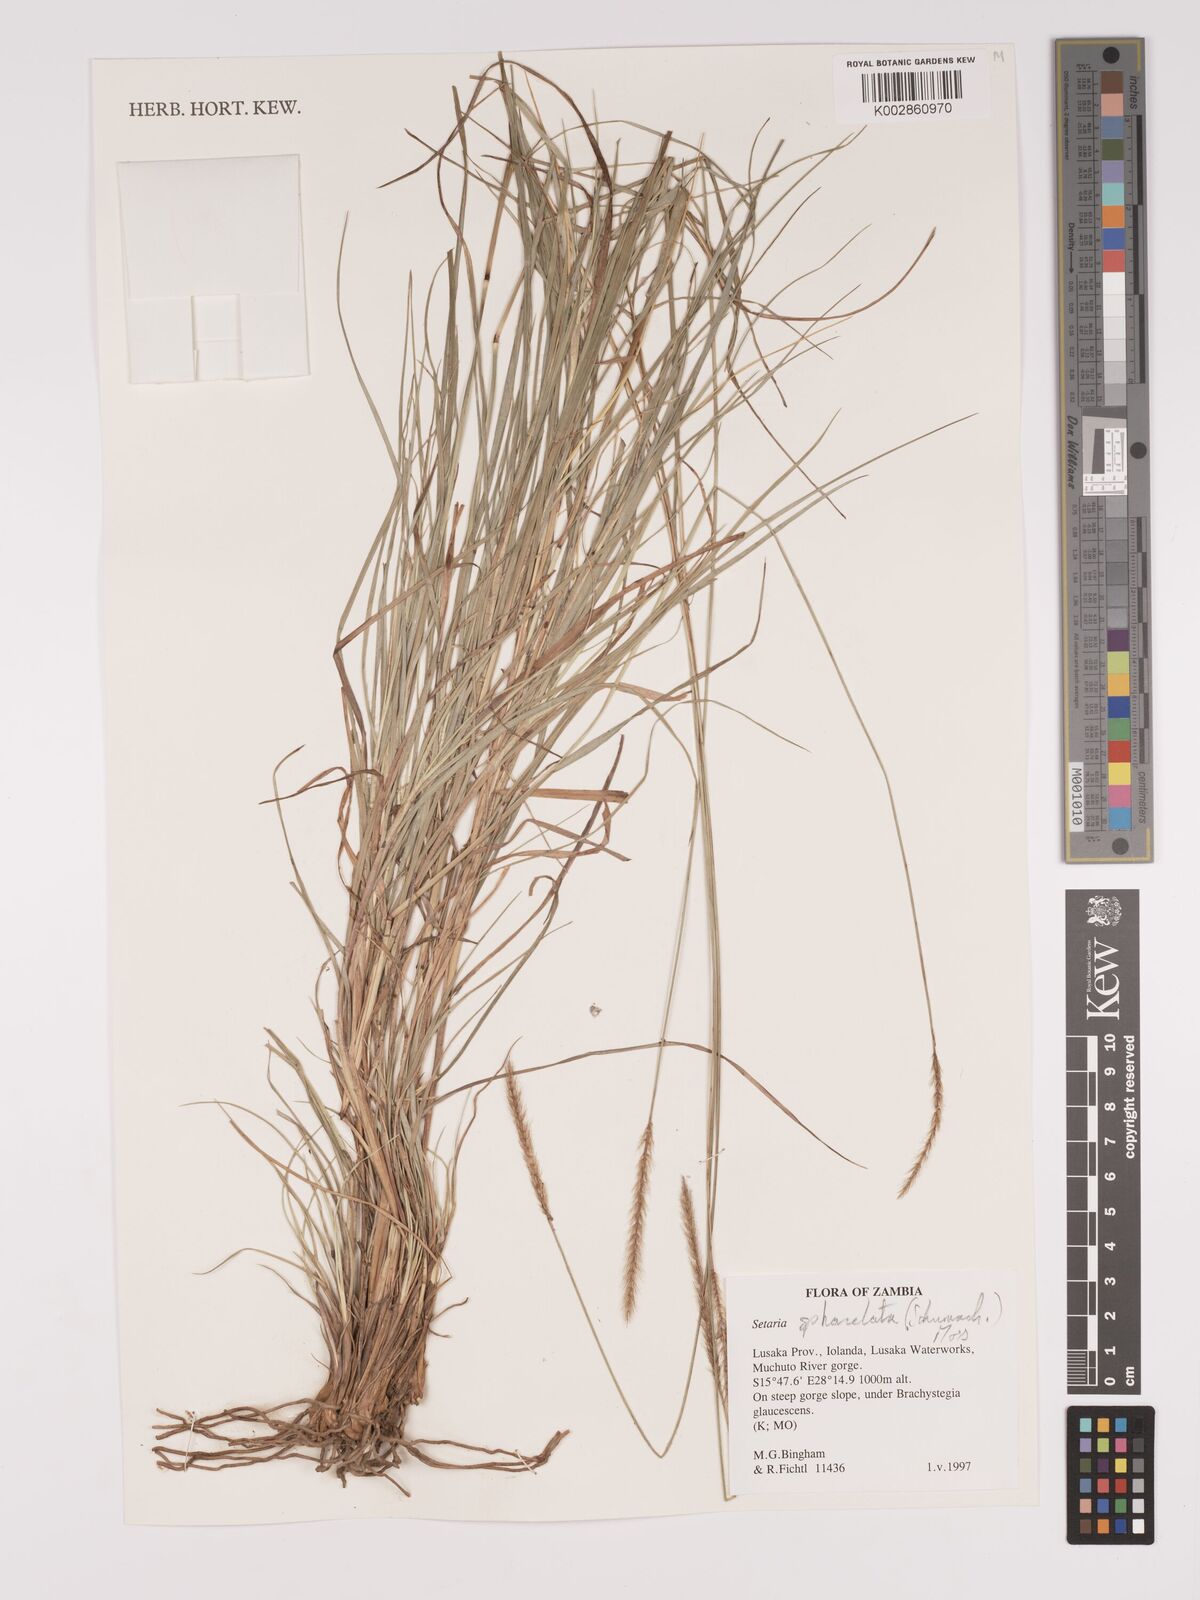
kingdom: Plantae
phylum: Tracheophyta
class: Liliopsida
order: Poales
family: Poaceae
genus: Setaria
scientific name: Setaria
